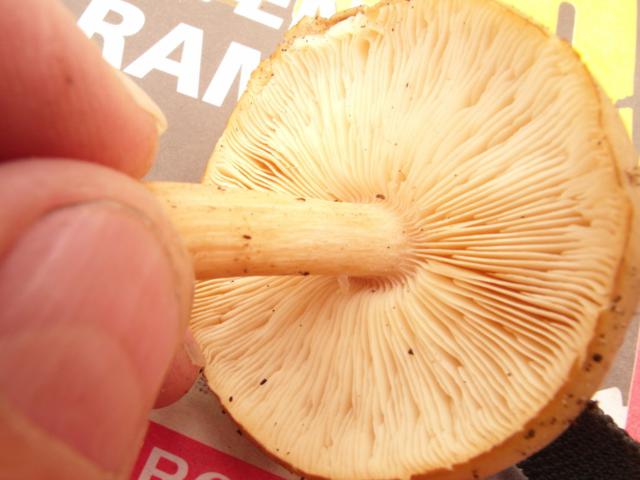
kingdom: Fungi
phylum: Basidiomycota
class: Agaricomycetes
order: Agaricales
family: Tricholomataceae
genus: Melanoleuca
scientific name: Melanoleuca cognata
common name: gyldengrå munkehat
